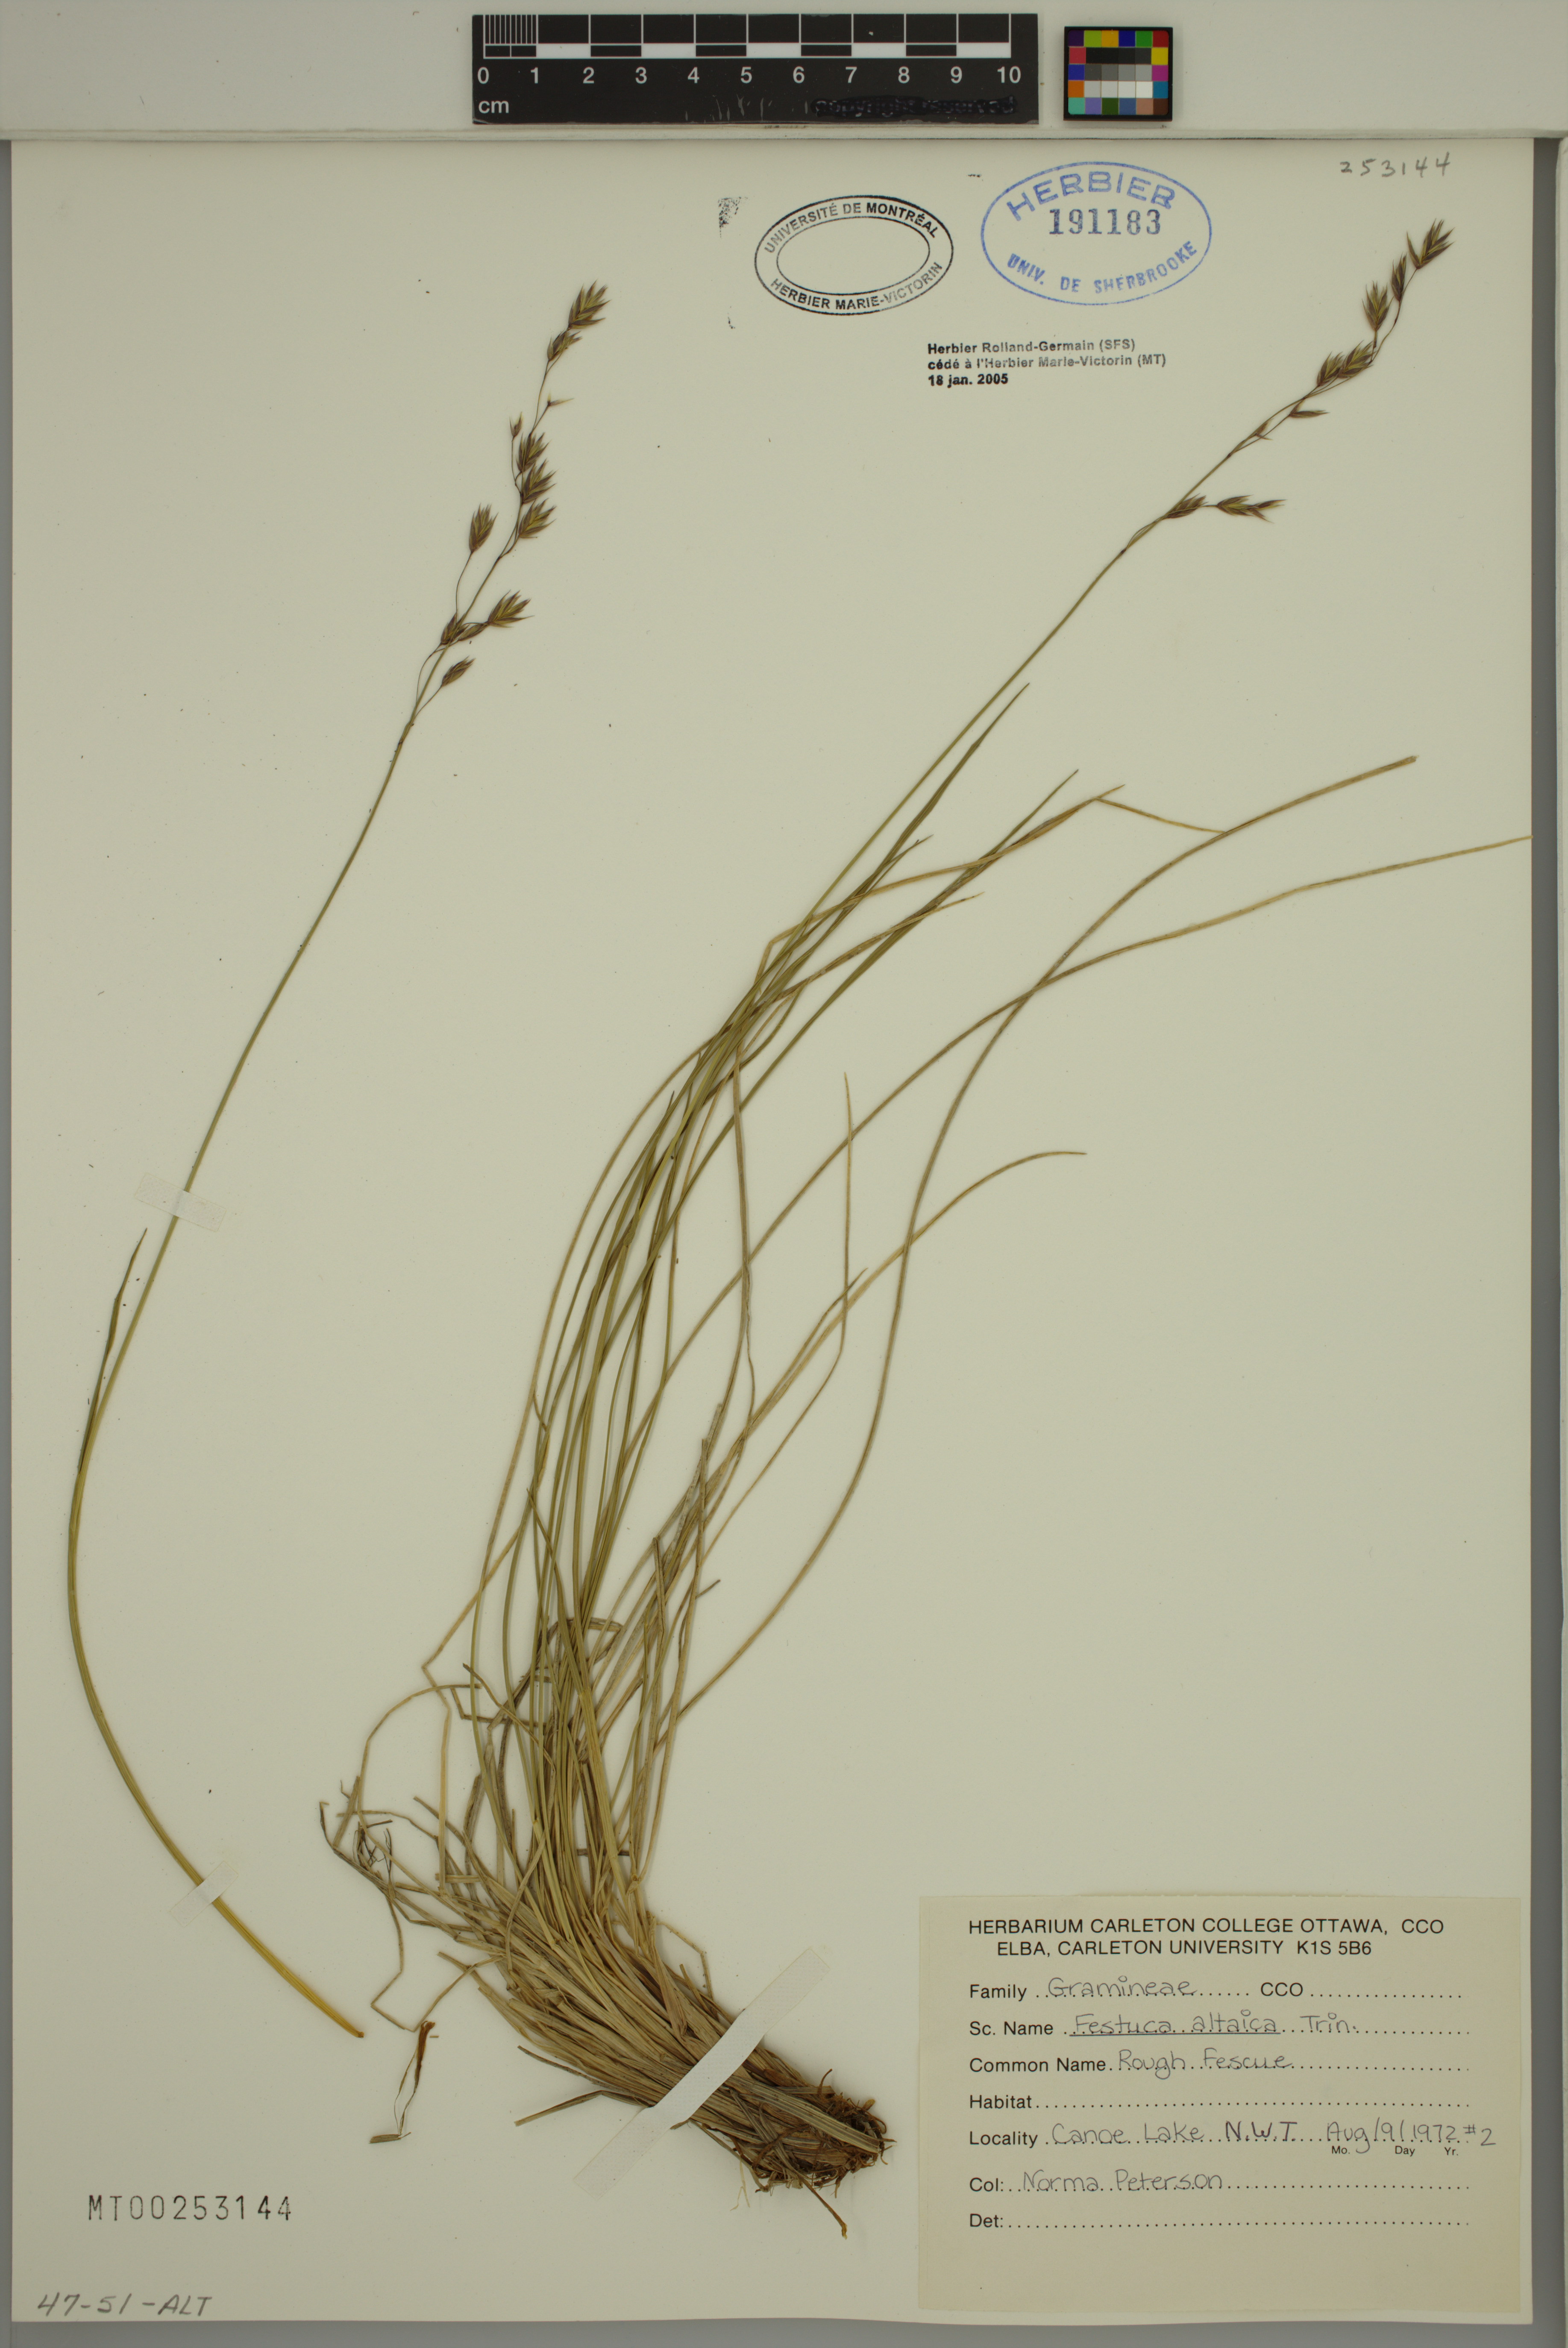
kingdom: Plantae
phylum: Tracheophyta
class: Liliopsida
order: Poales
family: Poaceae
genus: Festuca
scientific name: Festuca altaica
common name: Northern rough fescue
